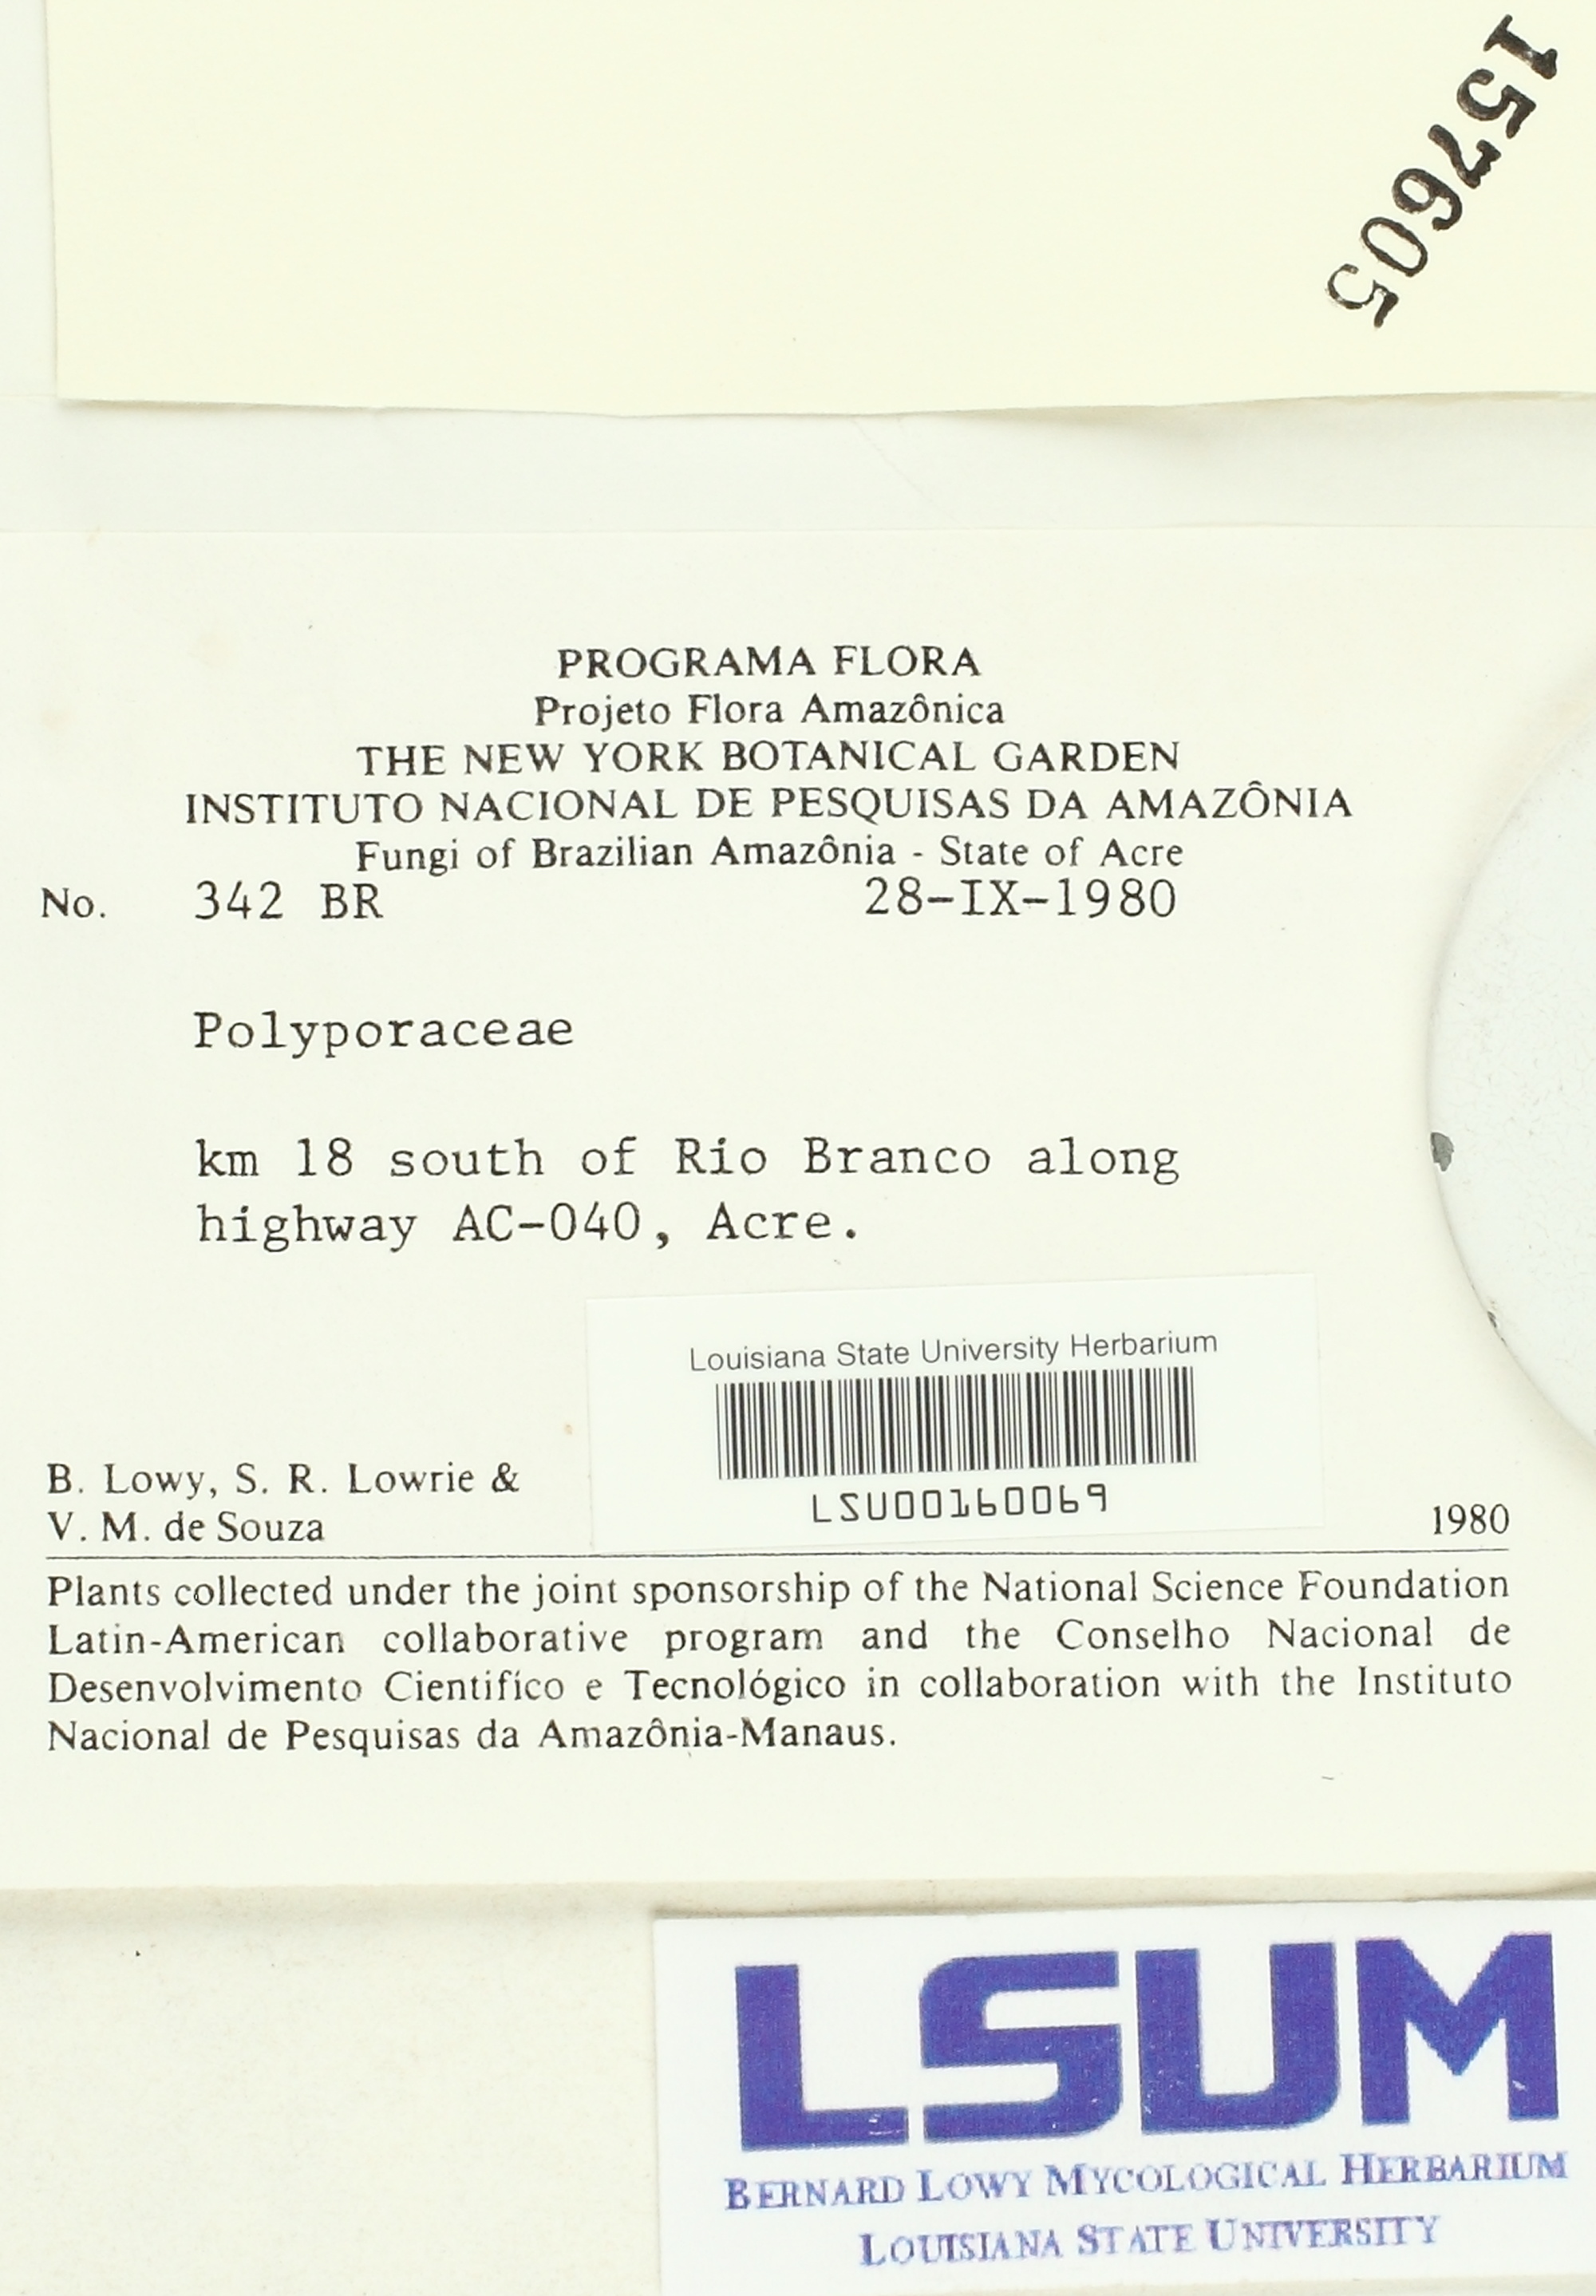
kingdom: Fungi
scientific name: Fungi
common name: Fungi
